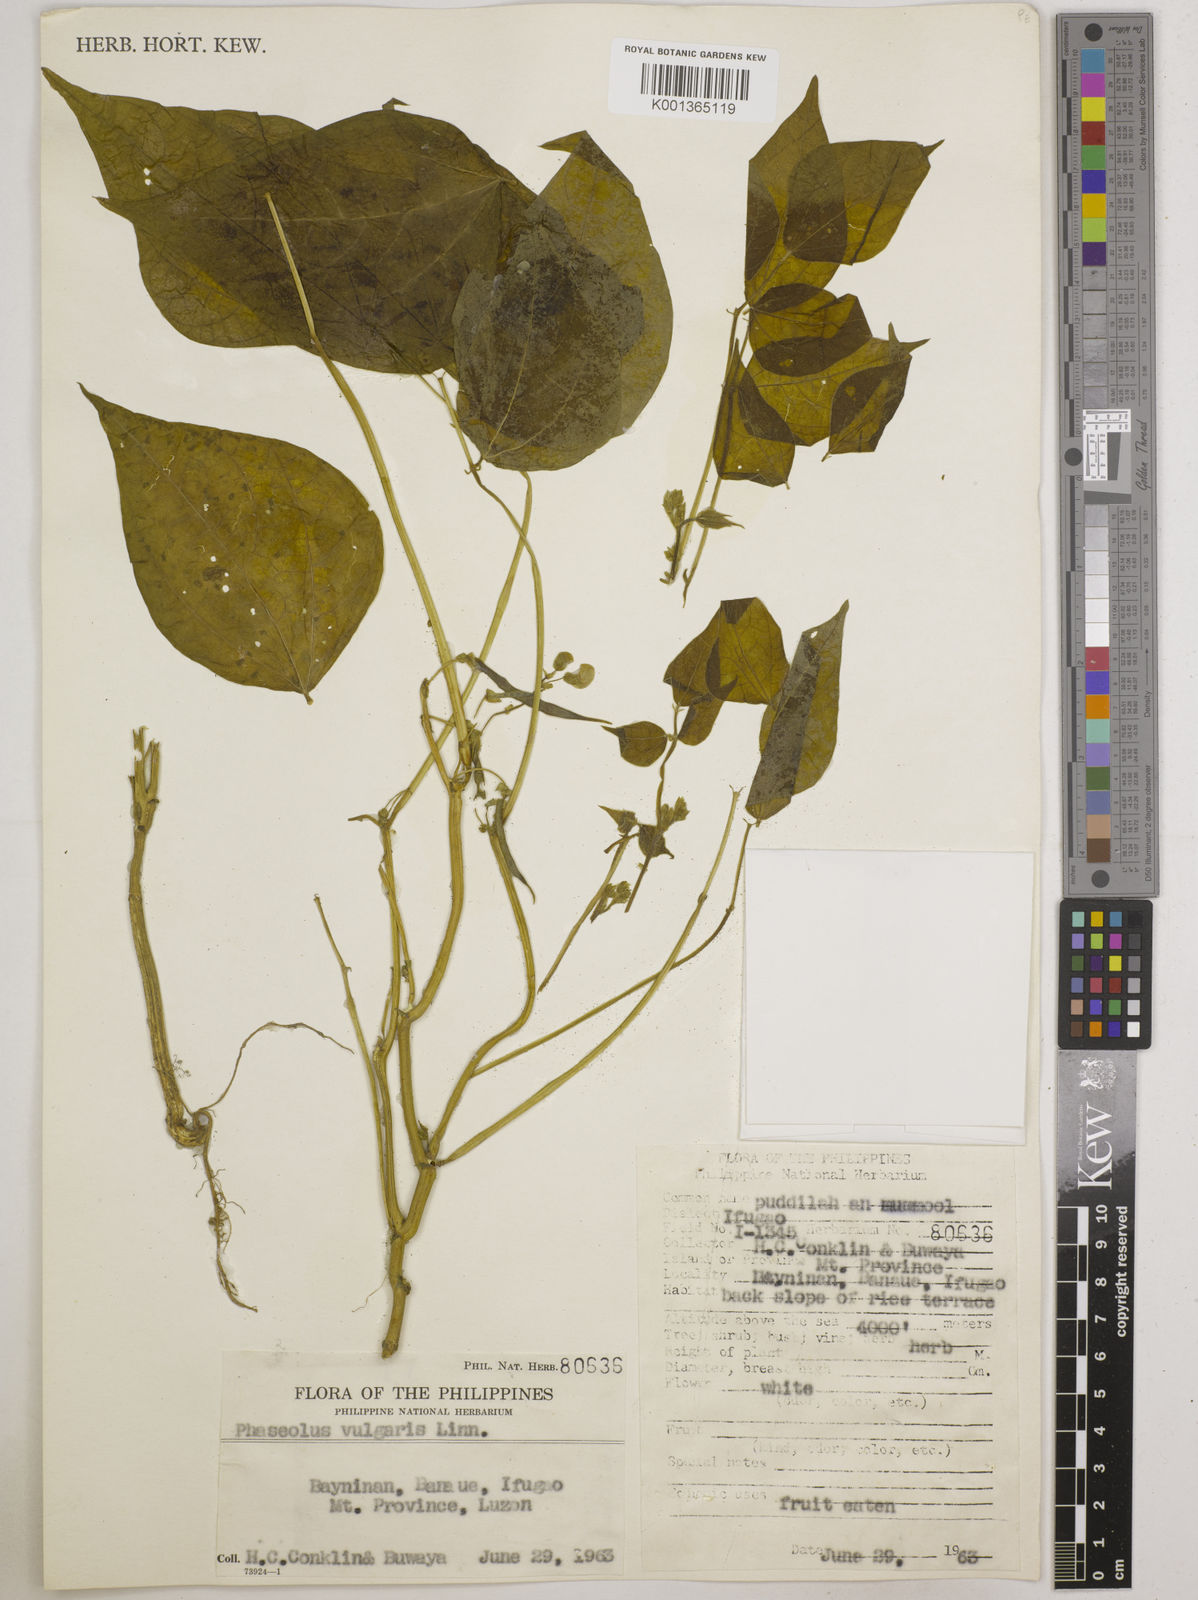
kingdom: Plantae
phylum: Tracheophyta
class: Magnoliopsida
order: Fabales
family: Fabaceae
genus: Phaseolus
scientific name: Phaseolus vulgaris
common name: Bean
